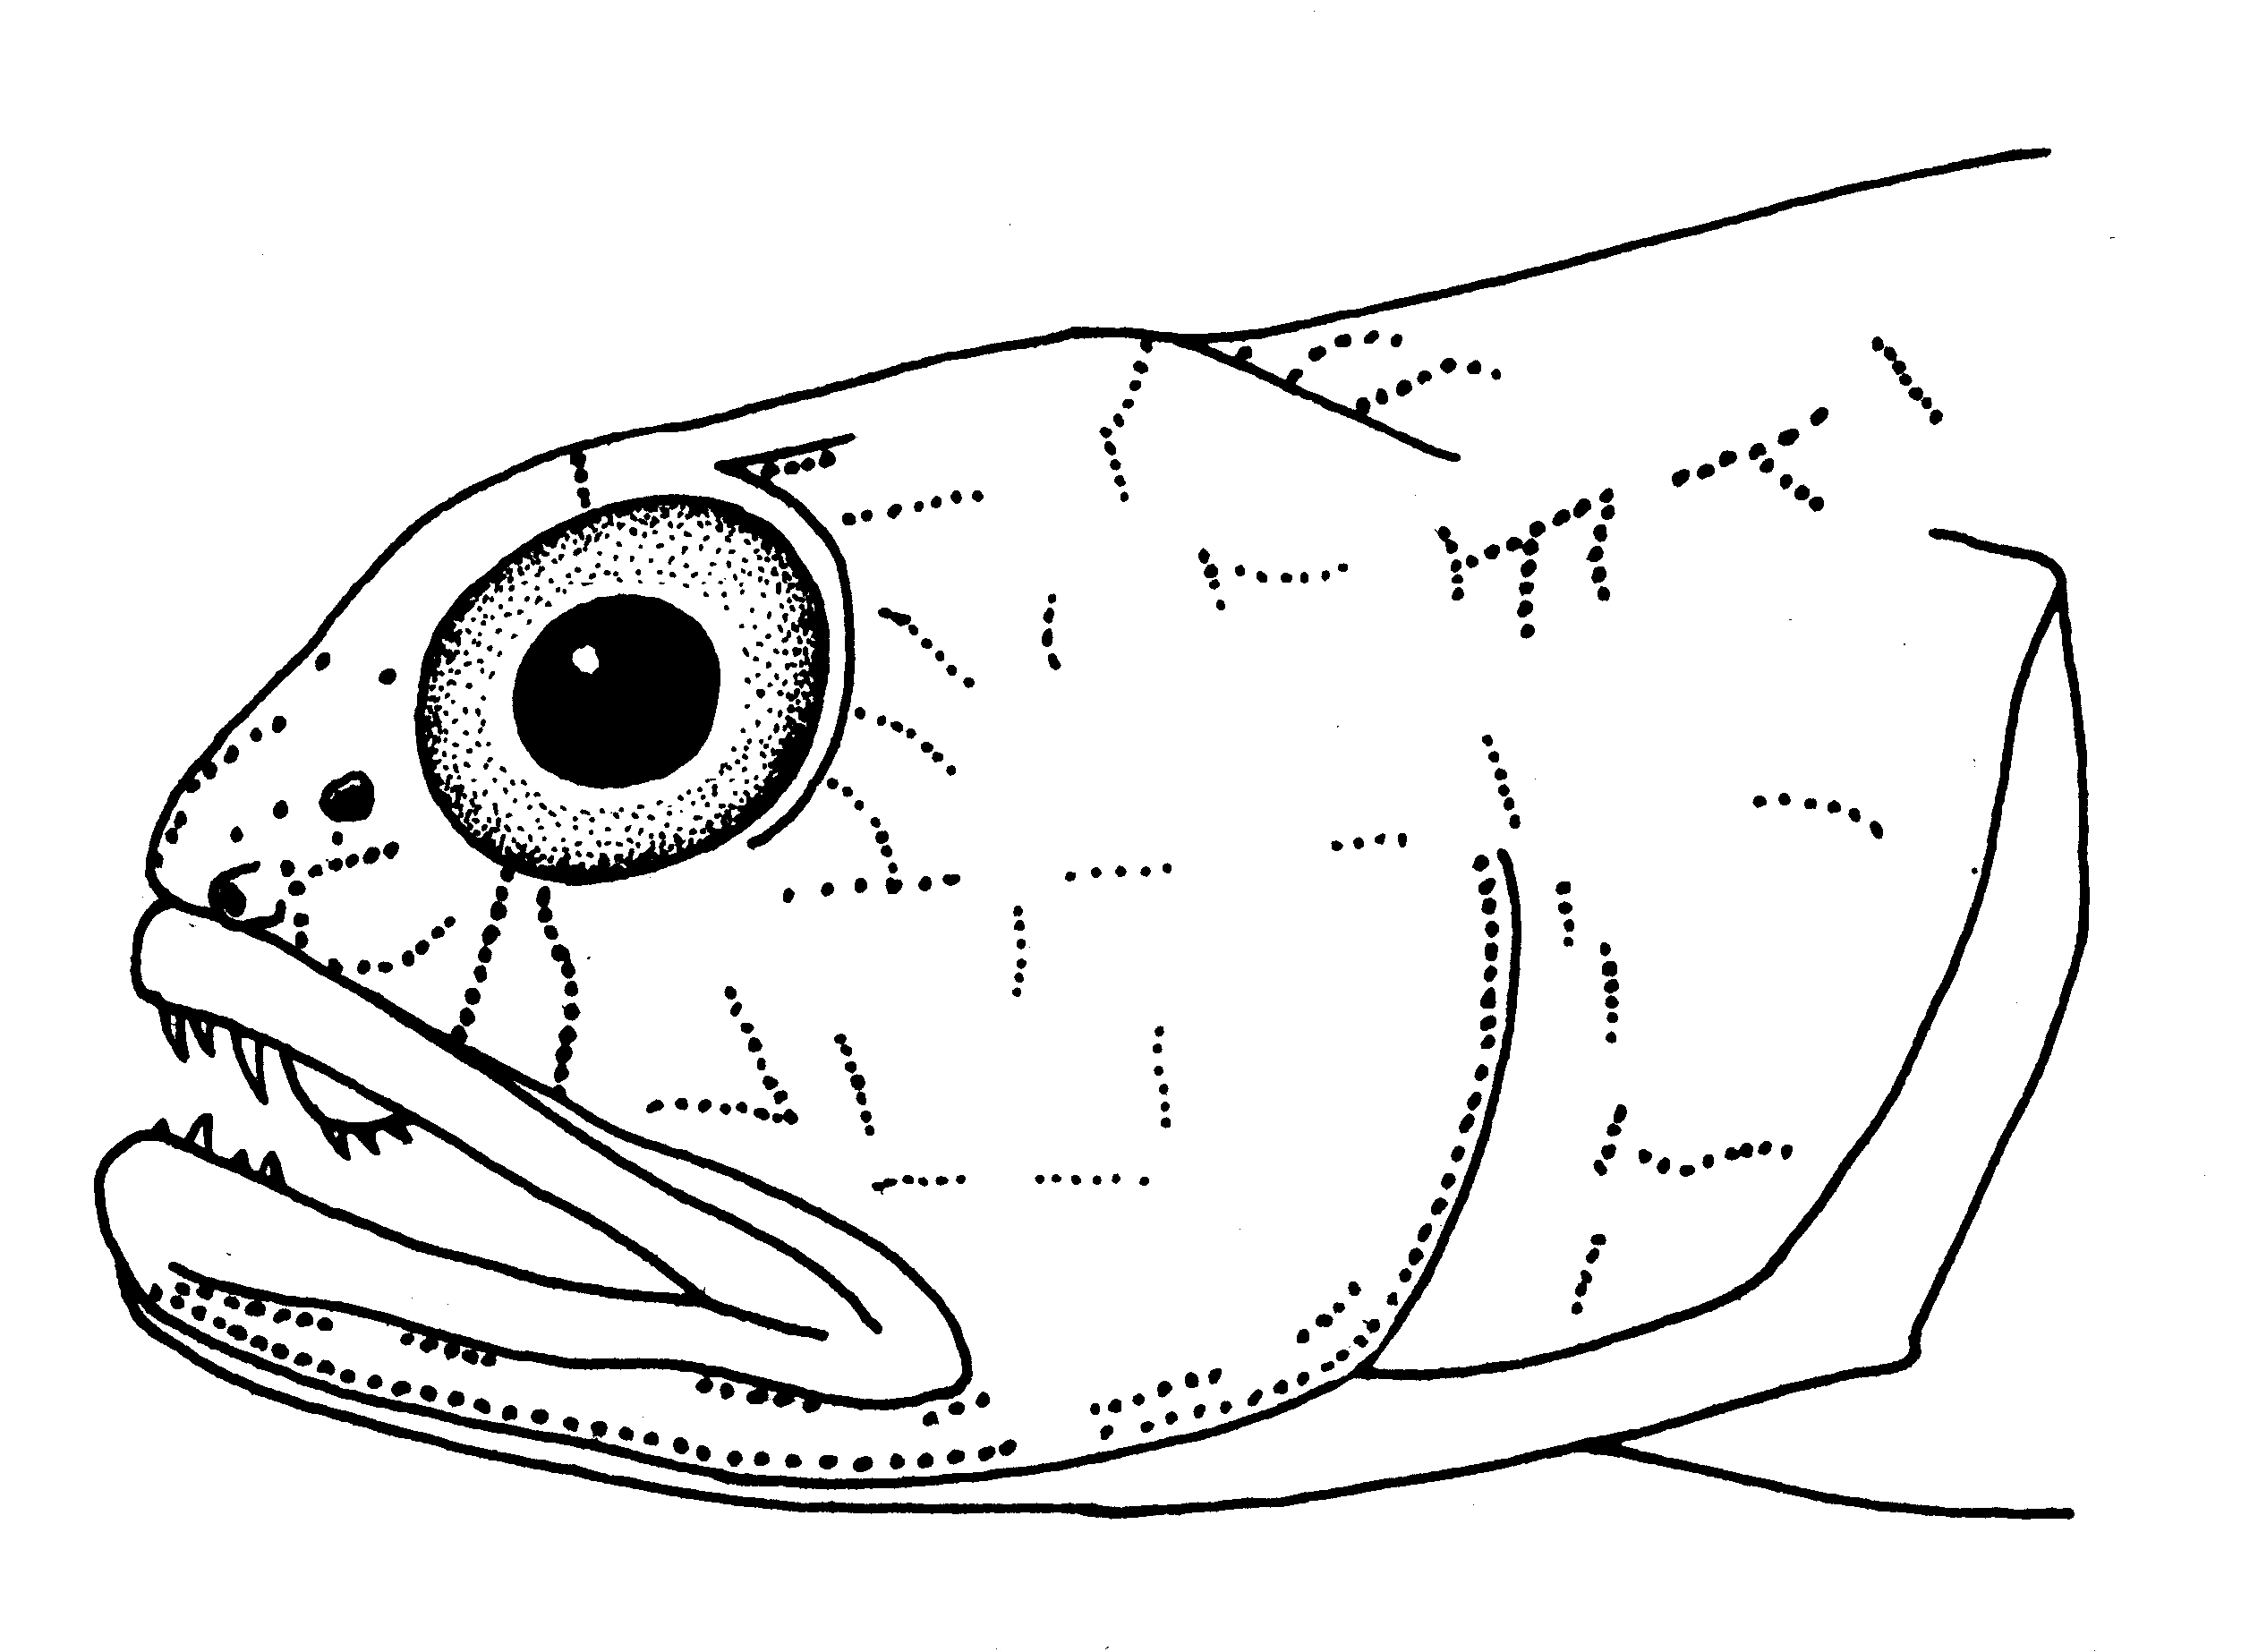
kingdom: Animalia
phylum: Chordata
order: Perciformes
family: Gobiidae
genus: Stonogobiops
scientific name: Stonogobiops
